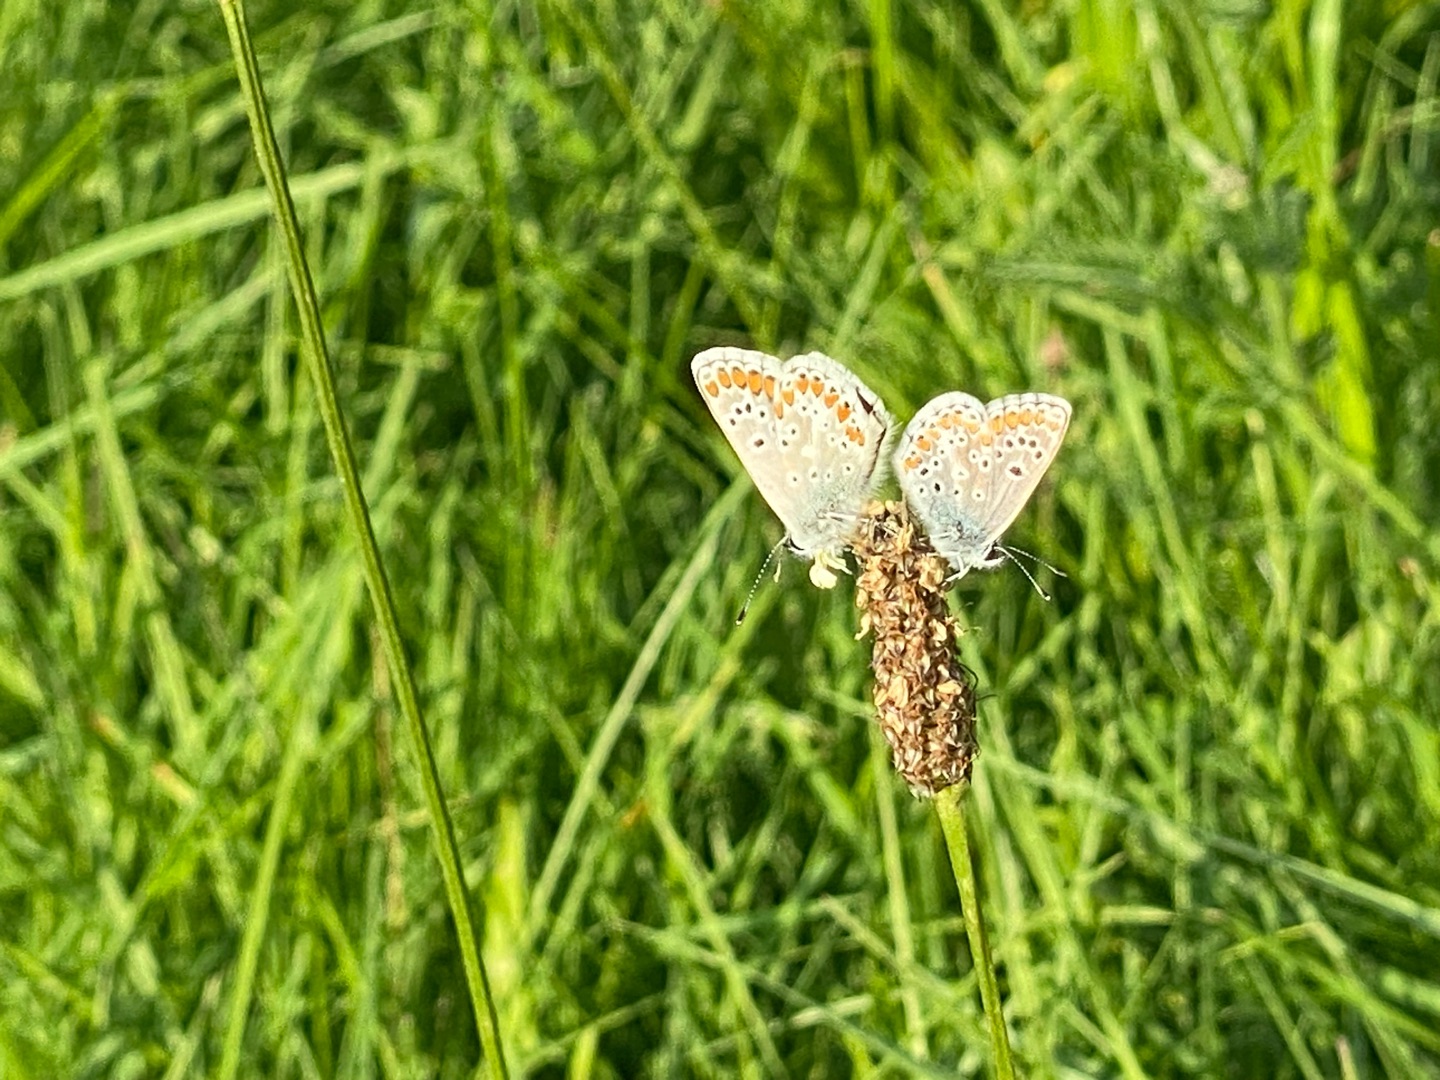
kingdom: Animalia
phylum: Arthropoda
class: Insecta
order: Lepidoptera
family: Lycaenidae
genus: Aricia
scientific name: Aricia agestis
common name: Rødplettet blåfugl
